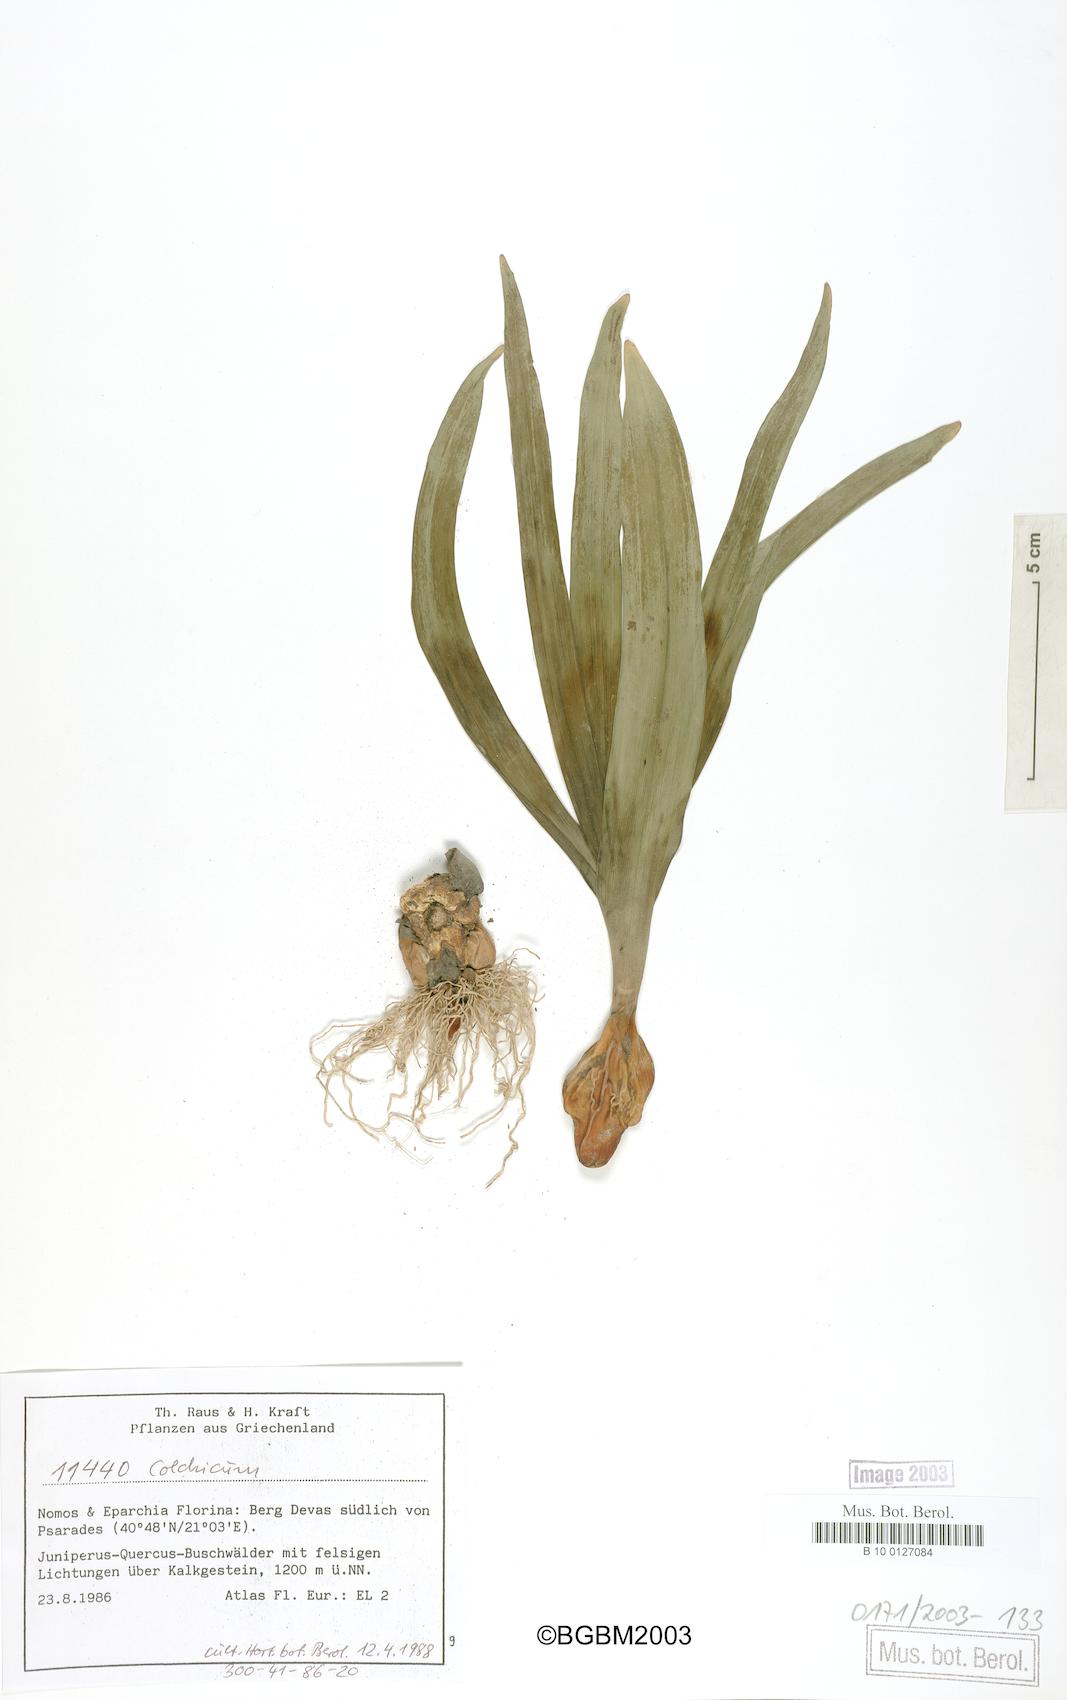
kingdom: Plantae
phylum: Tracheophyta
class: Liliopsida
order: Liliales
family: Colchicaceae
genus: Colchicum
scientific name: Colchicum
